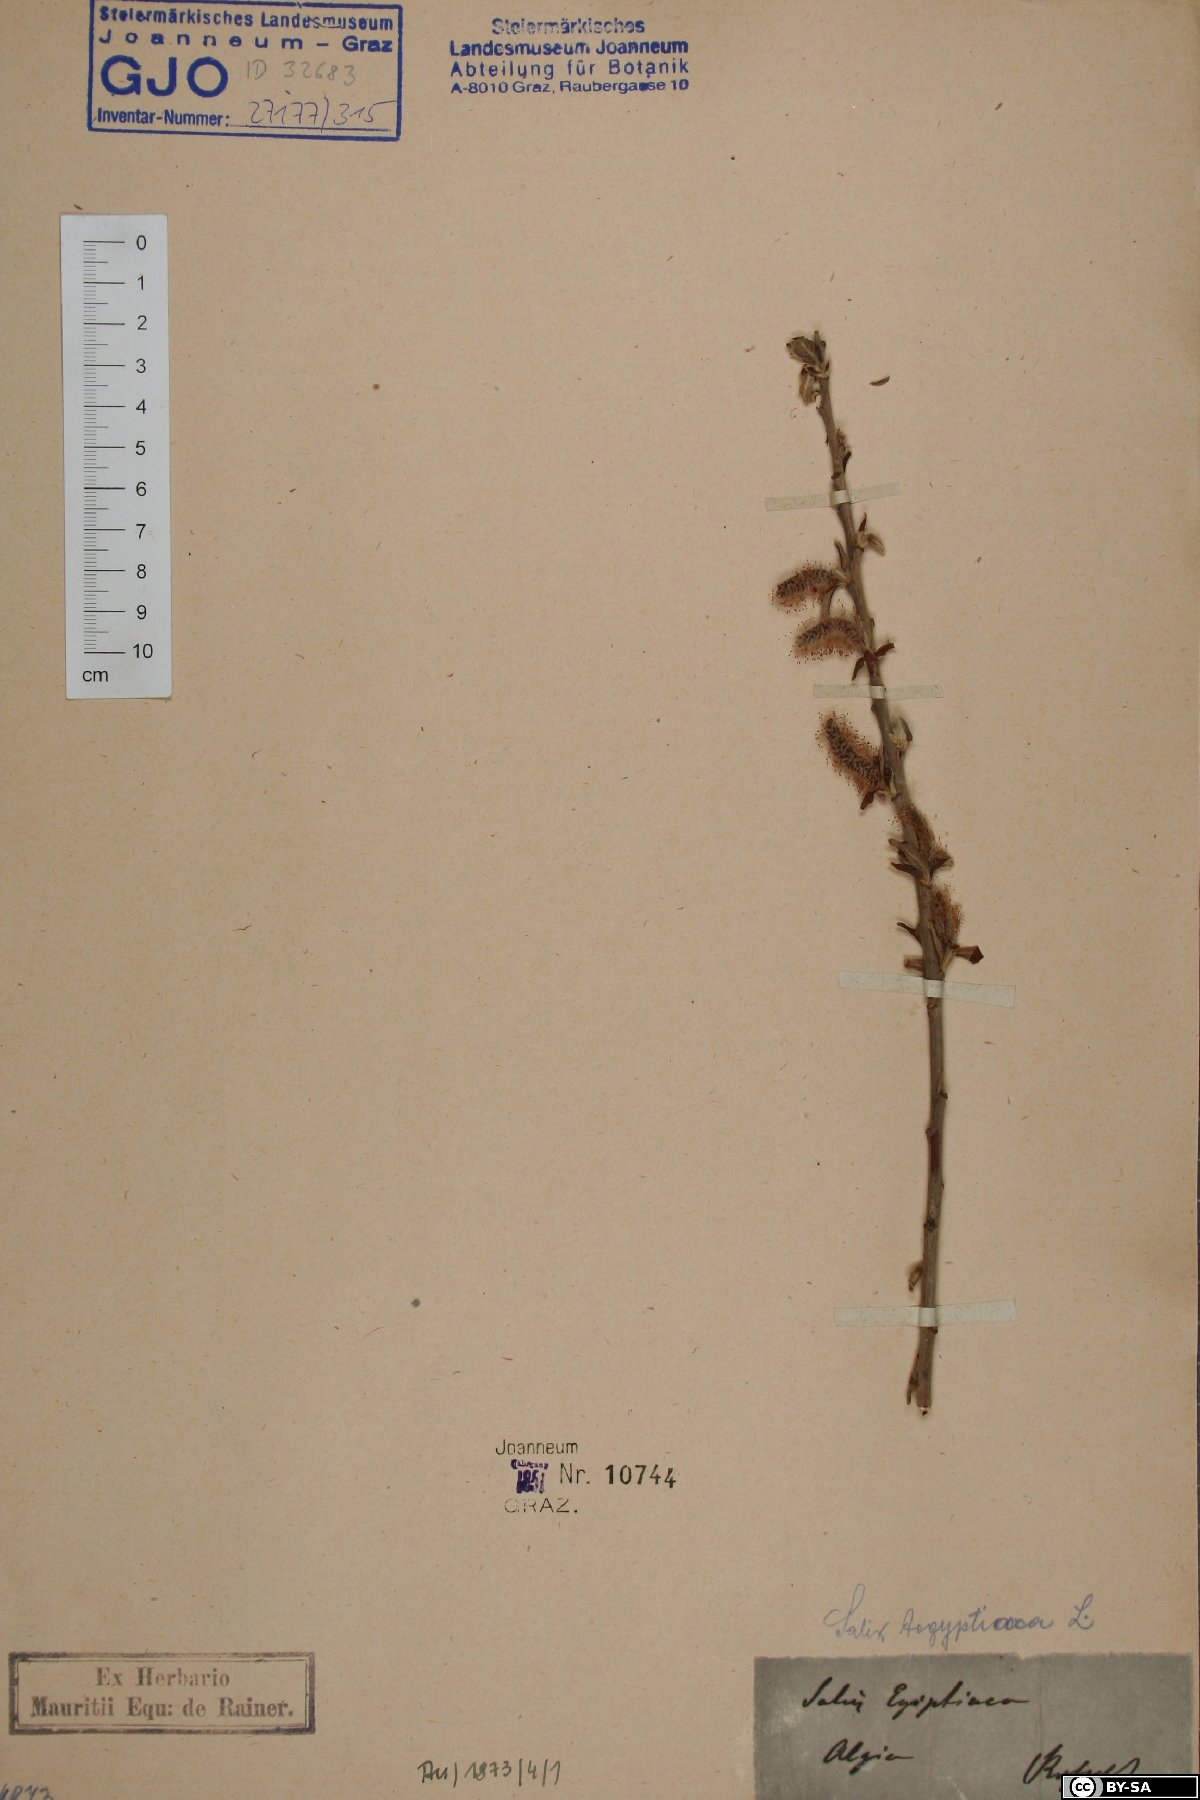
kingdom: Plantae
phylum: Tracheophyta
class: Magnoliopsida
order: Malpighiales
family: Salicaceae
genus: Salix
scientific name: Salix aegyptiaca
